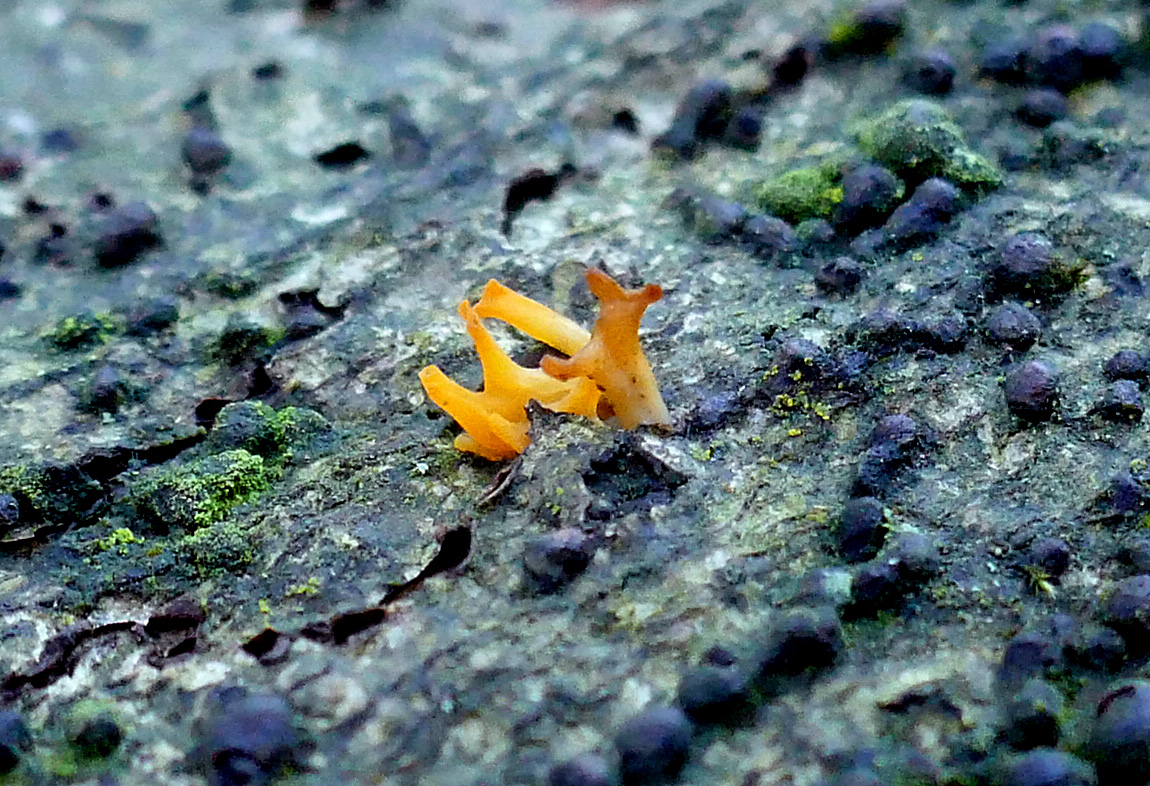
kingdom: Fungi
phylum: Basidiomycota
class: Dacrymycetes
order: Dacrymycetales
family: Dacrymycetaceae
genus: Calocera
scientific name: Calocera cornea
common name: liden guldgaffel
